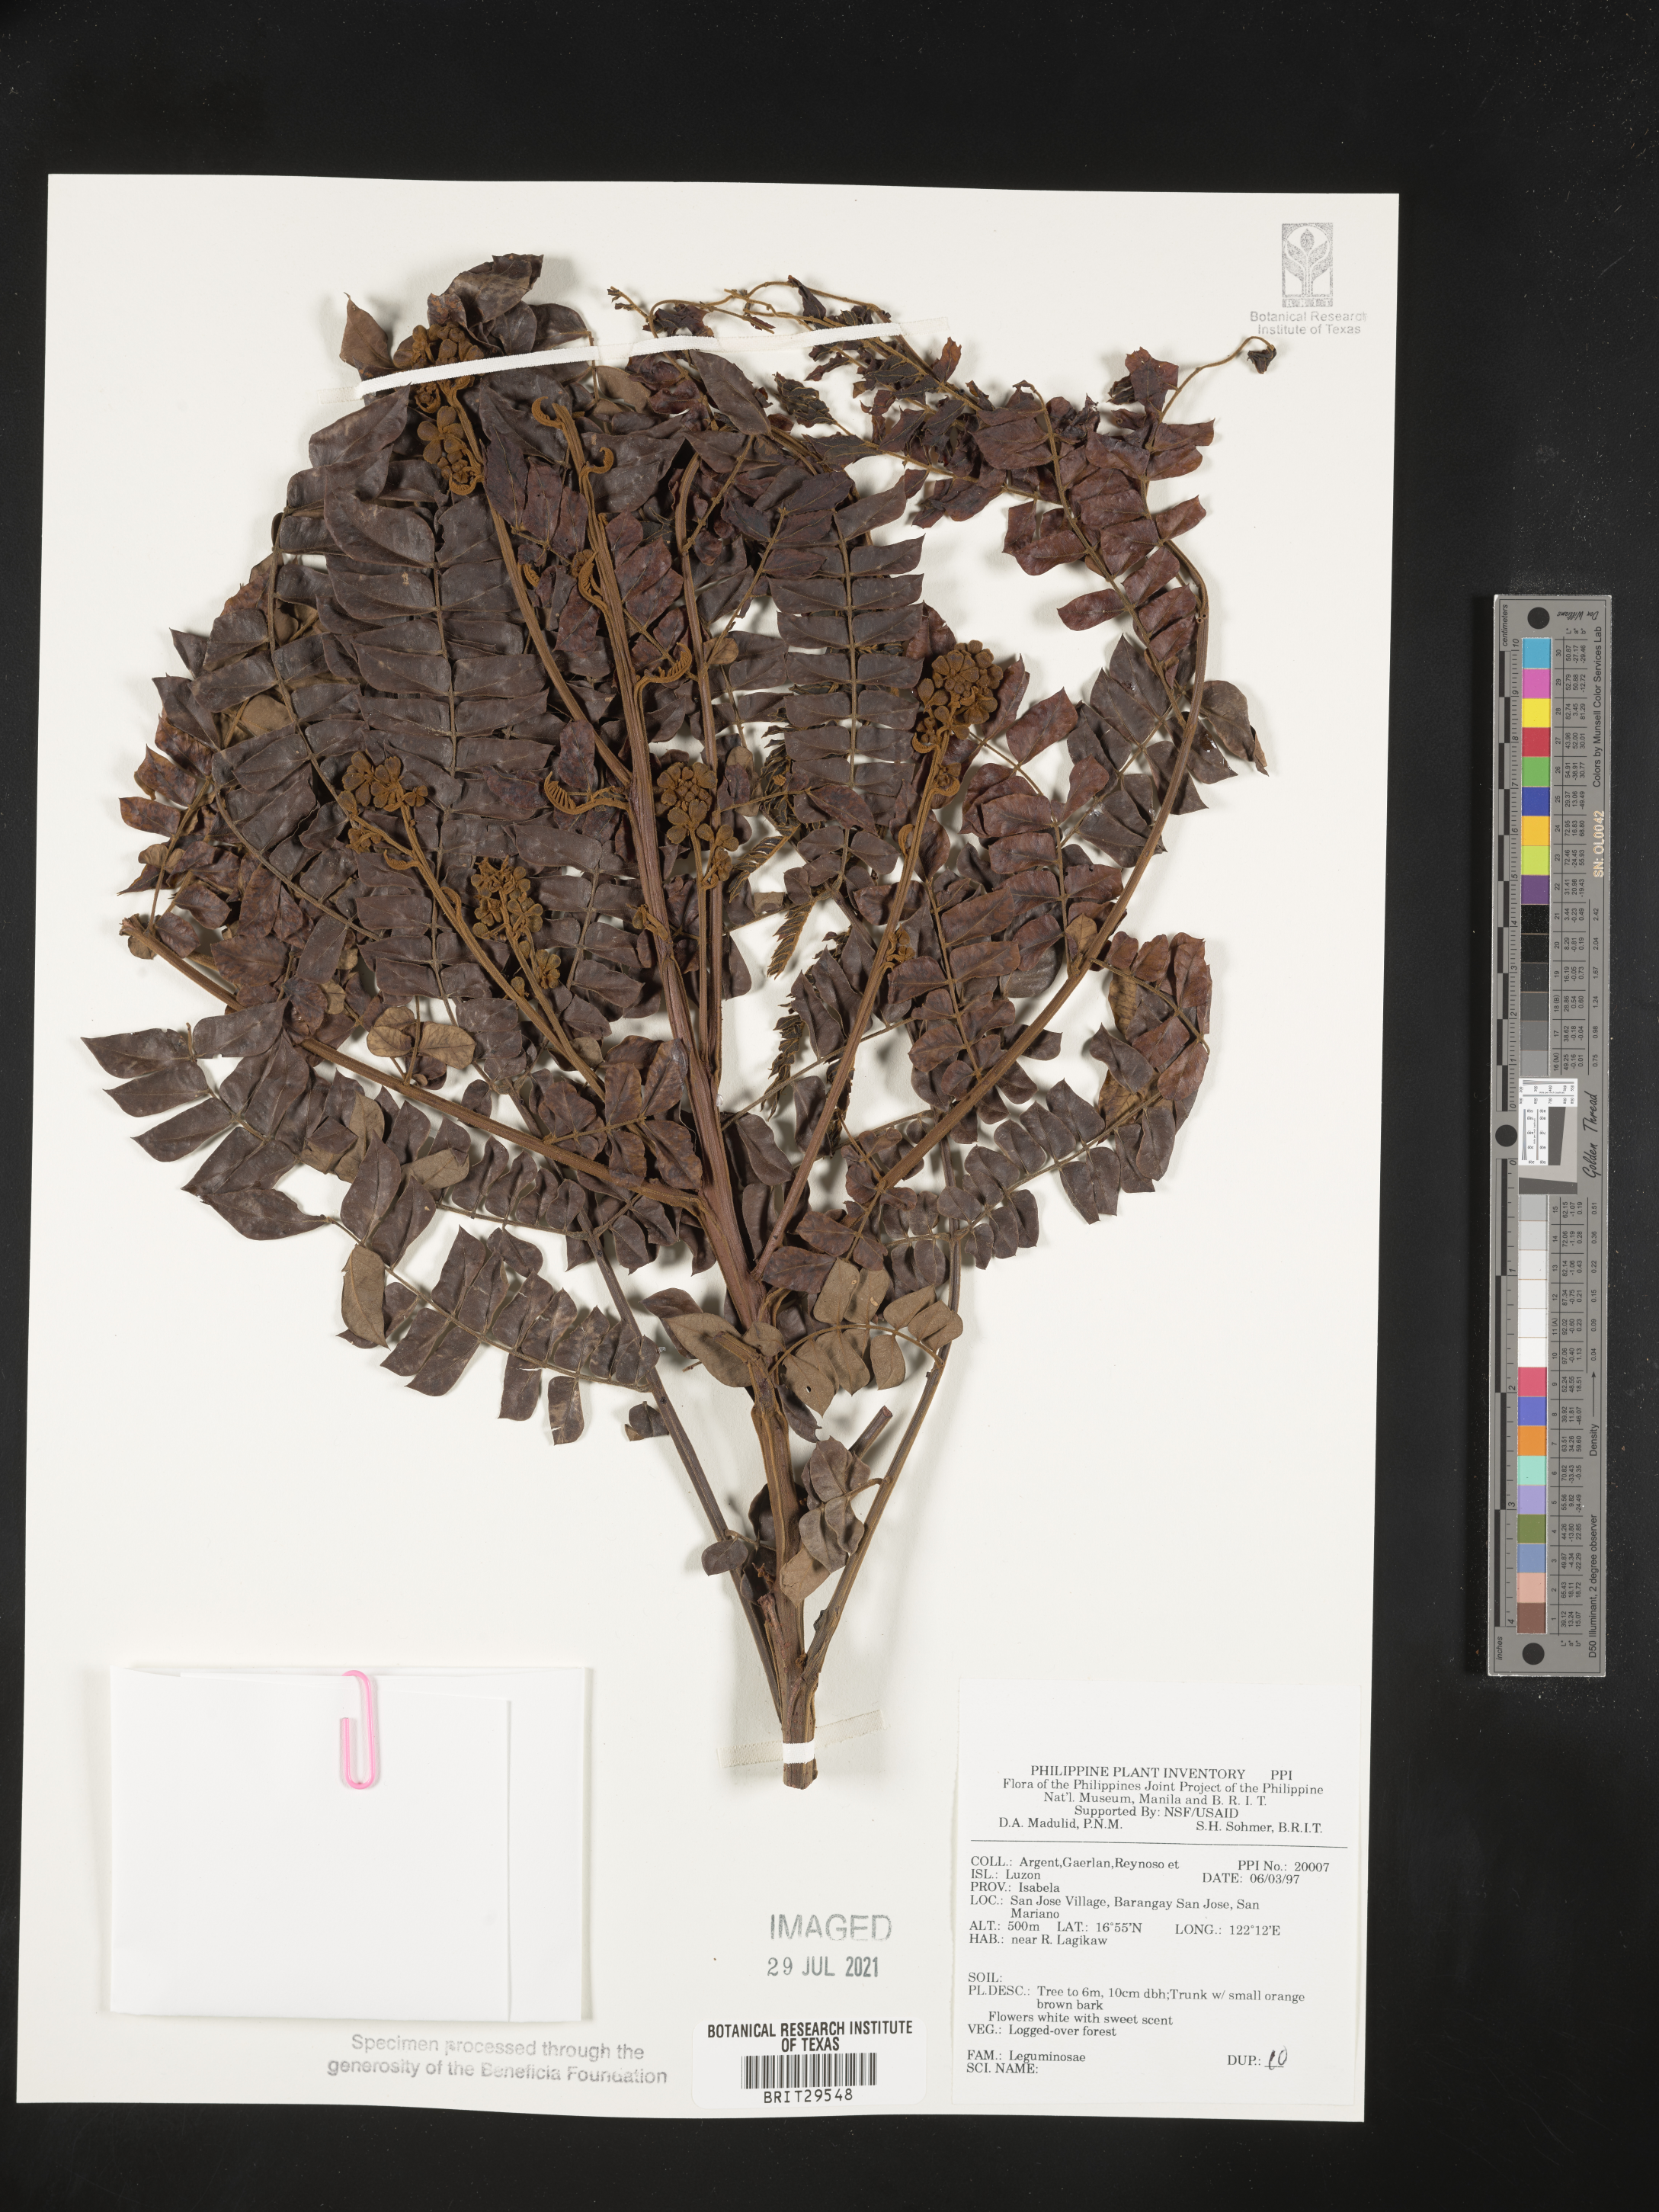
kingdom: Plantae
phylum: Tracheophyta
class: Magnoliopsida
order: Fabales
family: Fabaceae
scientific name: Fabaceae
